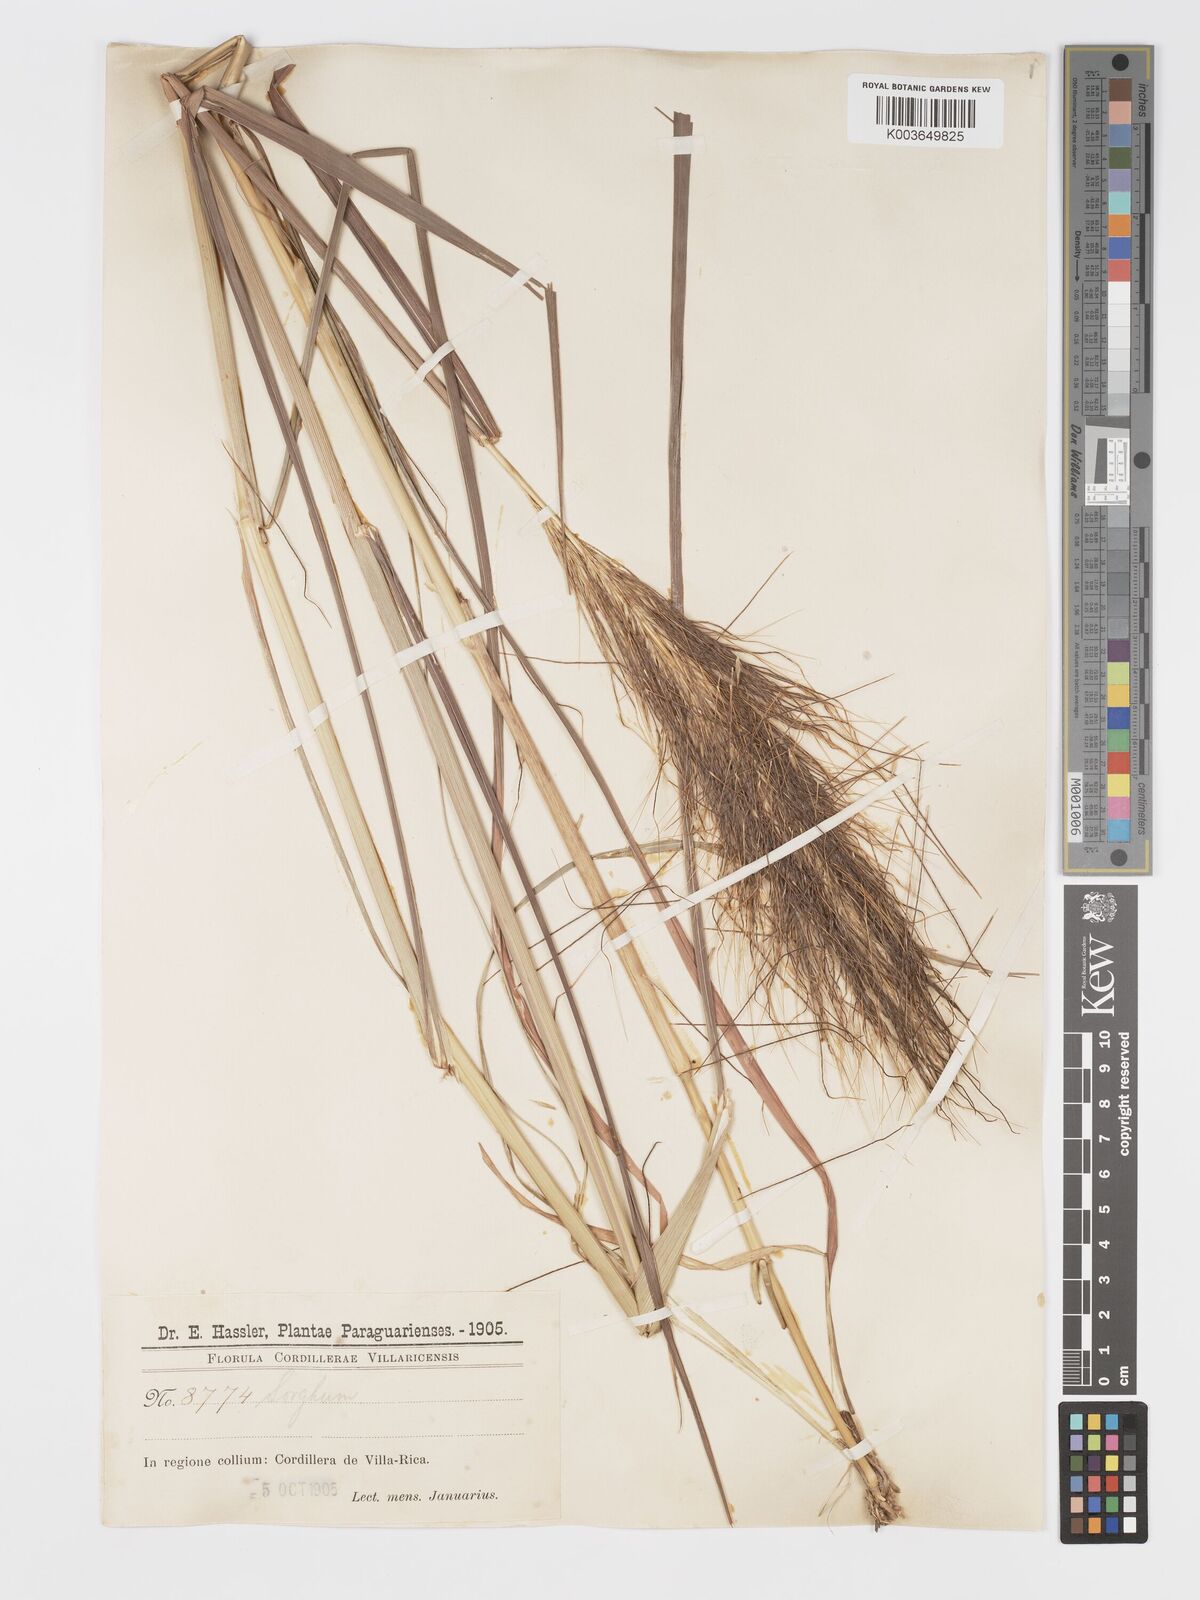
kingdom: Plantae
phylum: Tracheophyta
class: Liliopsida
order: Poales
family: Poaceae
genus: Sorghastrum
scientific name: Sorghastrum minarum
